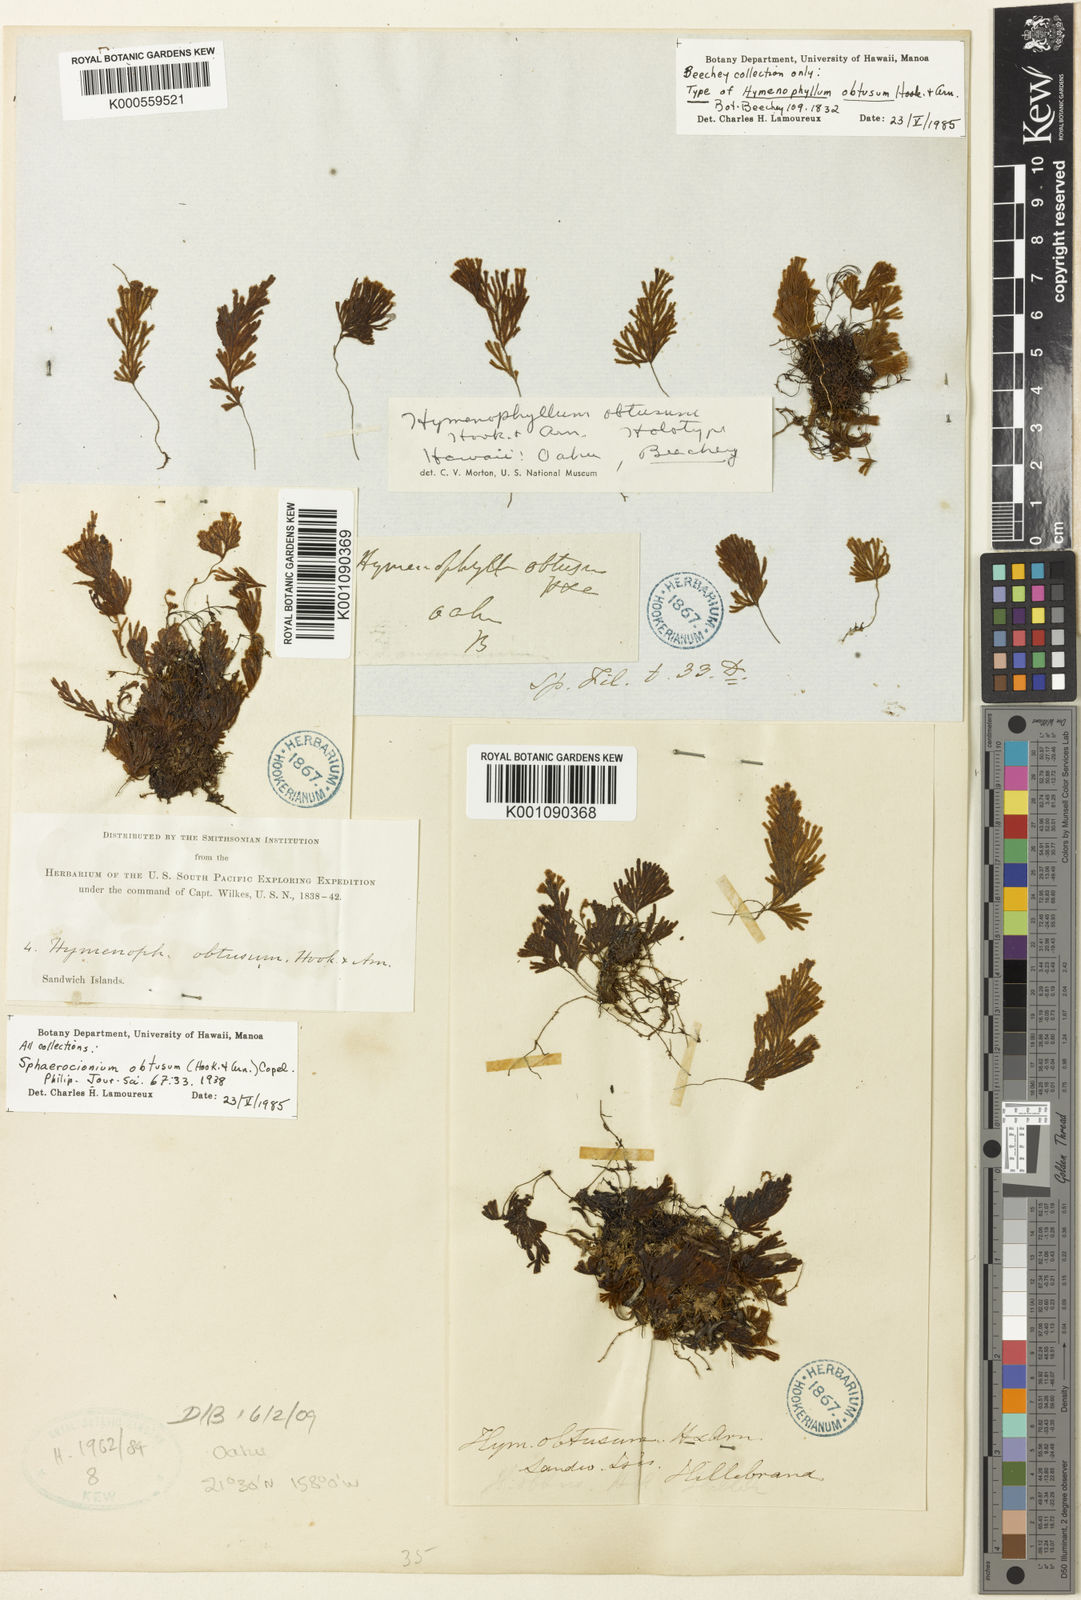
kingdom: Plantae
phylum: Tracheophyta
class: Polypodiopsida
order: Hymenophyllales
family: Hymenophyllaceae
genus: Hymenophyllum
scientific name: Hymenophyllum obtusum
